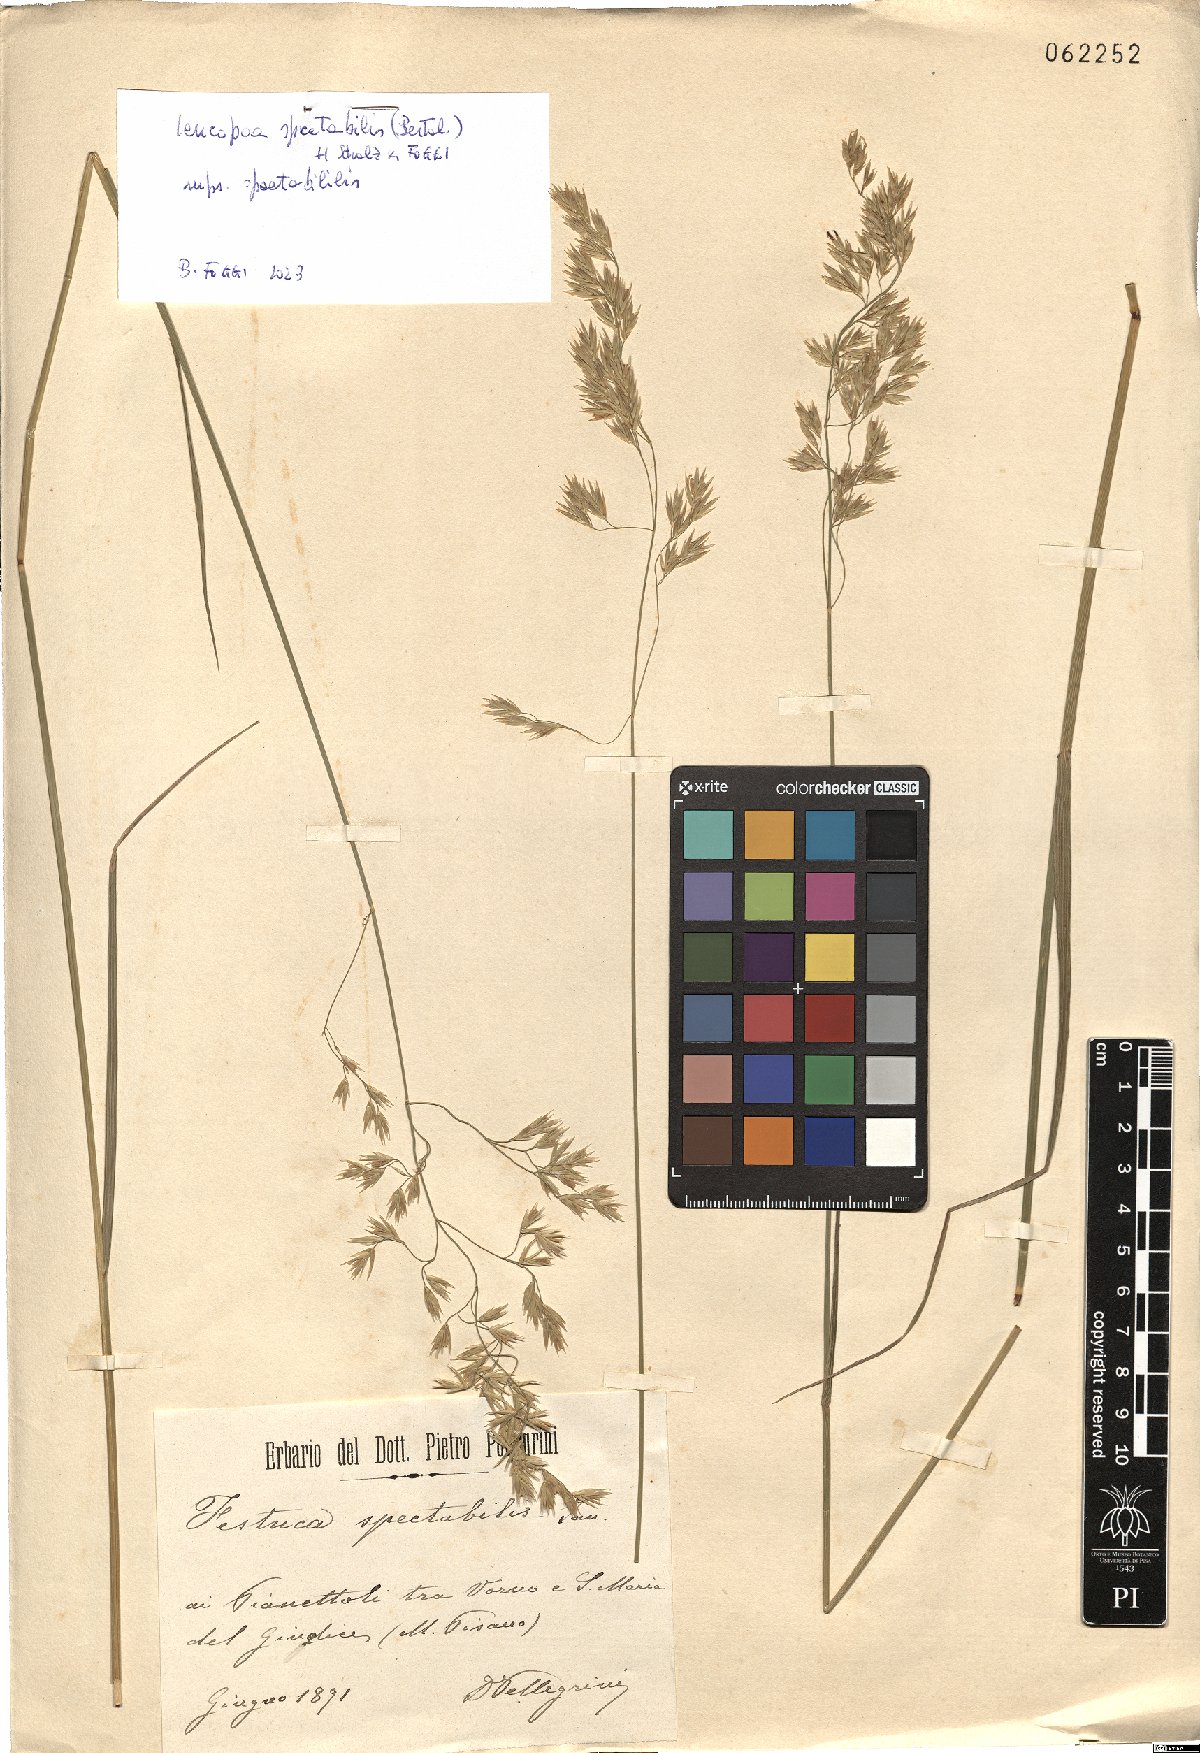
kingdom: Plantae
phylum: Tracheophyta
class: Liliopsida
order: Poales
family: Poaceae
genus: Festuca
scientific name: Festuca spectabilis
